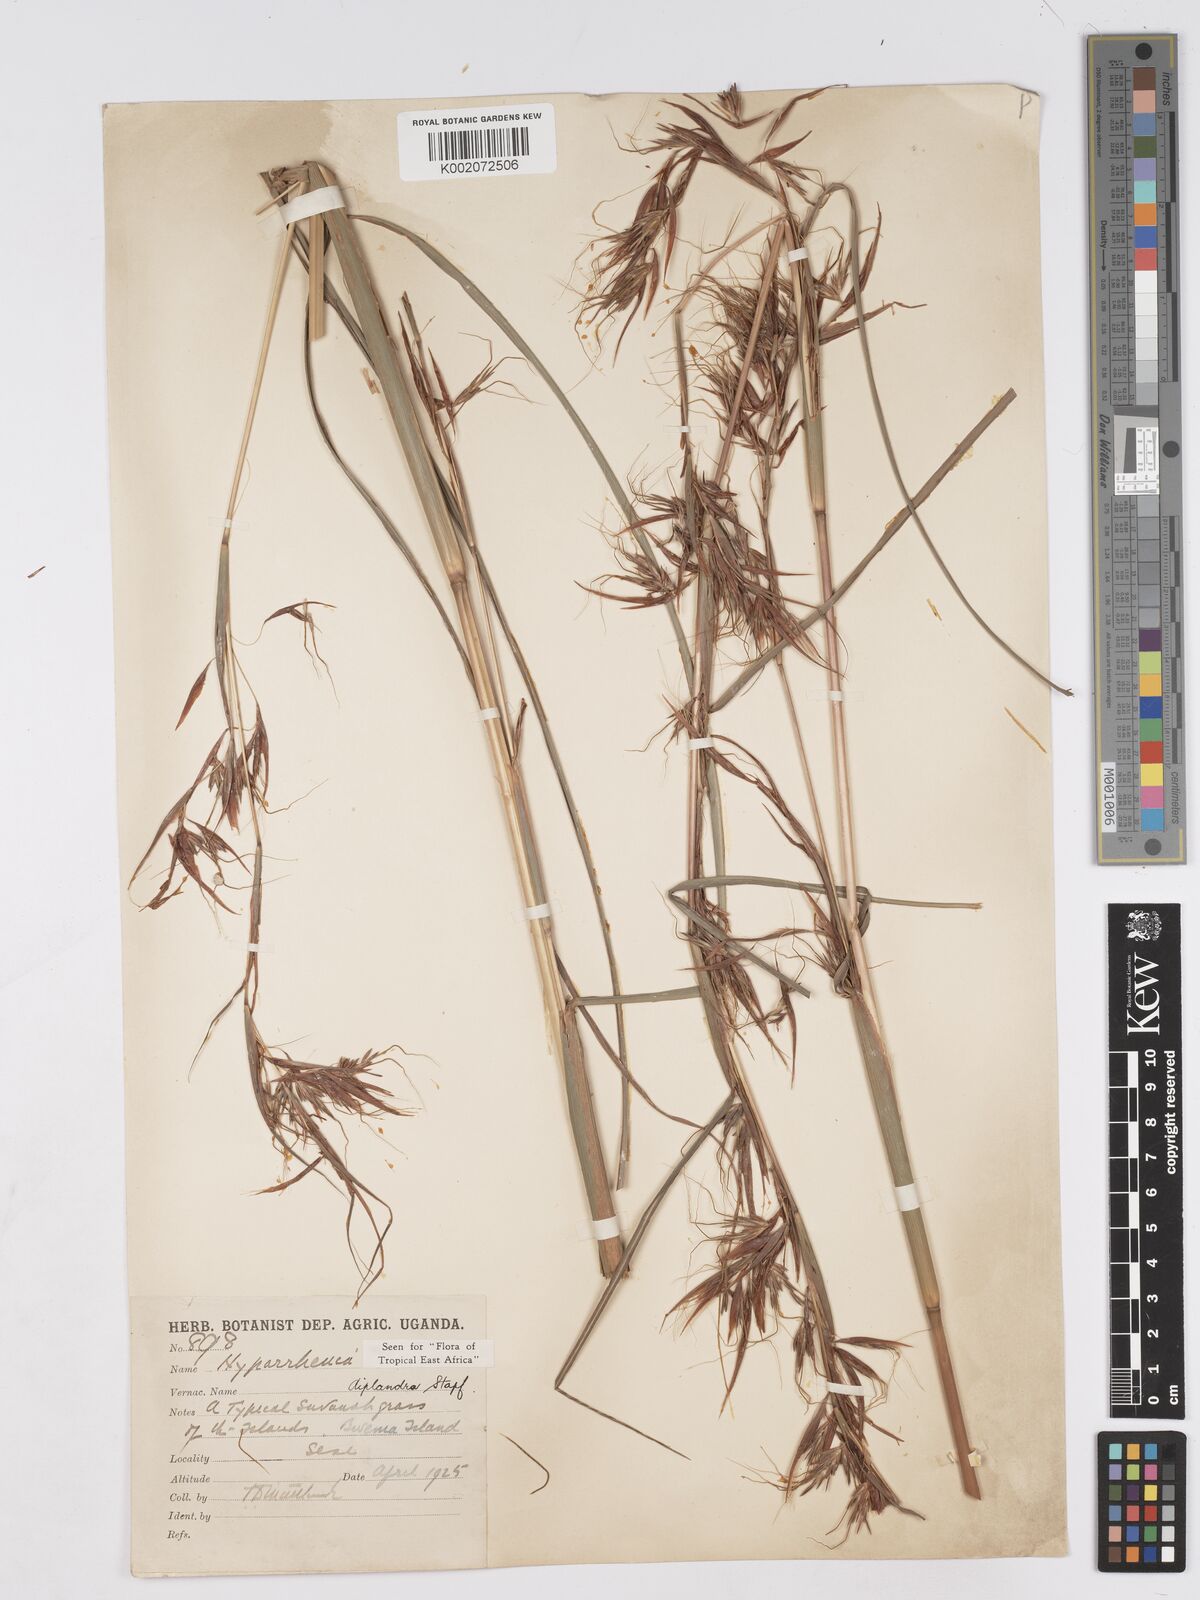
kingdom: Plantae
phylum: Tracheophyta
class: Liliopsida
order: Poales
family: Poaceae
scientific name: Poaceae
